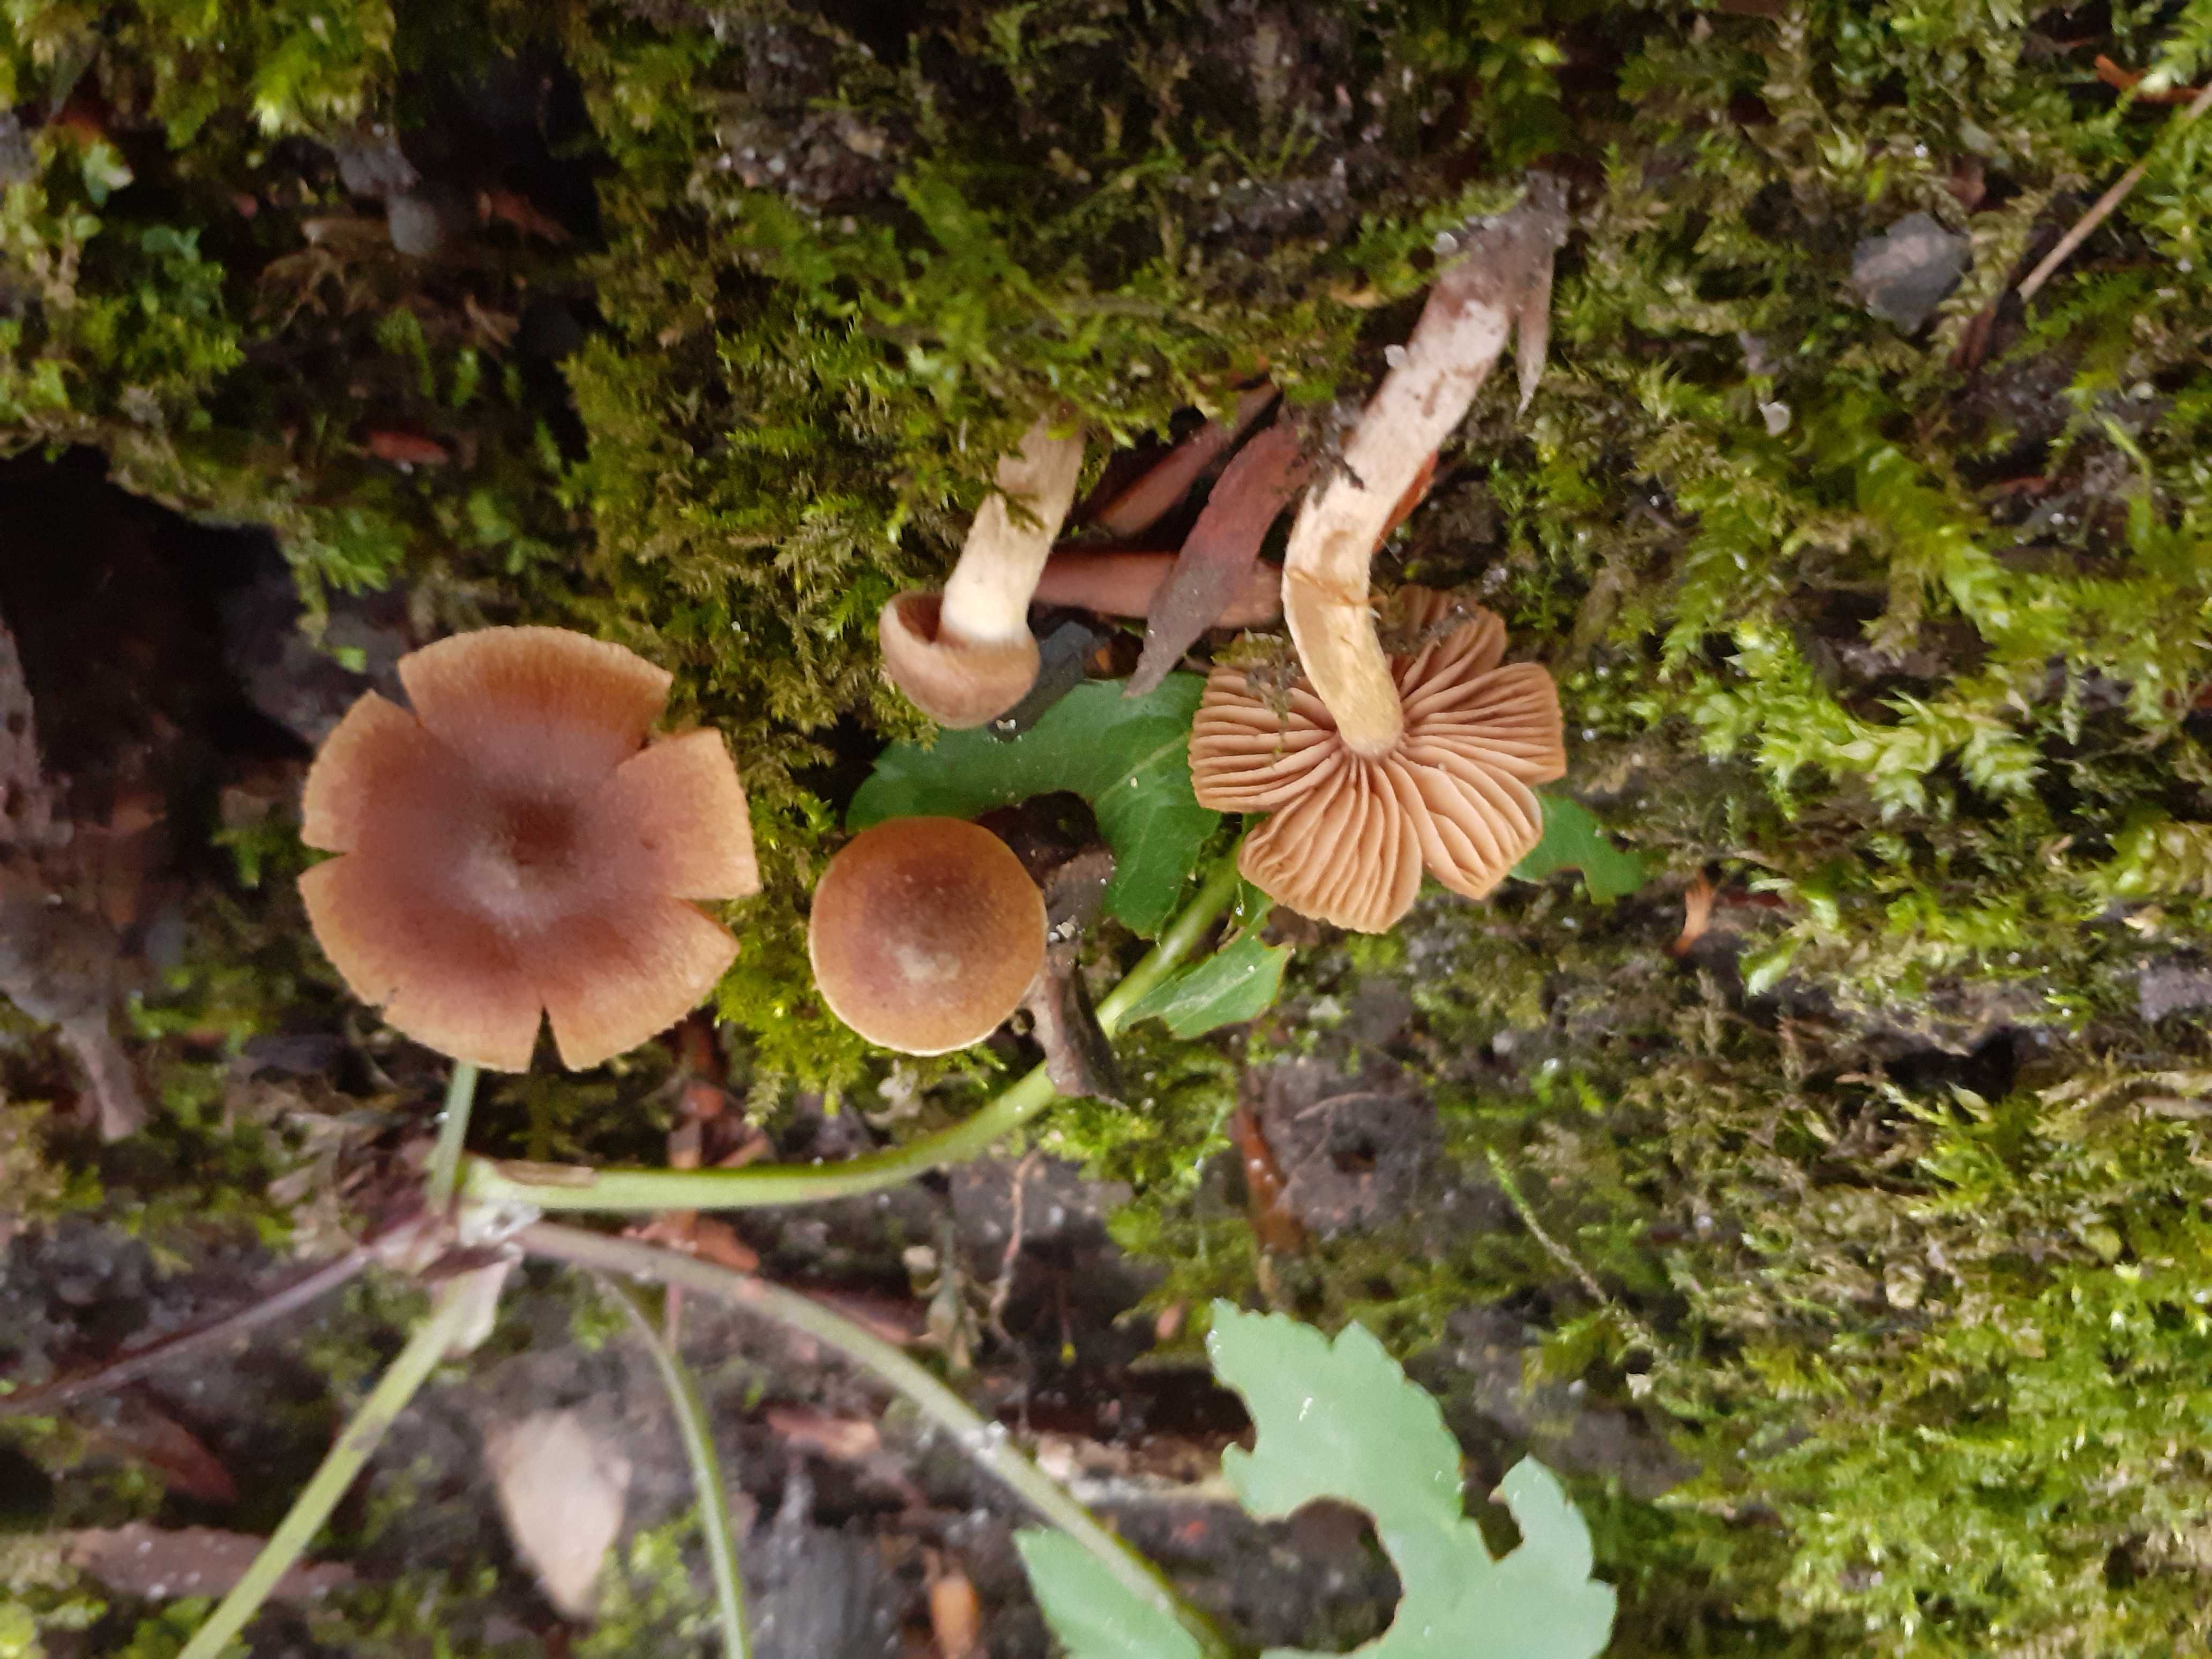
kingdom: Fungi
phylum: Basidiomycota
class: Agaricomycetes
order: Agaricales
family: Cortinariaceae
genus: Cortinarius
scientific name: Cortinarius denigratoides
